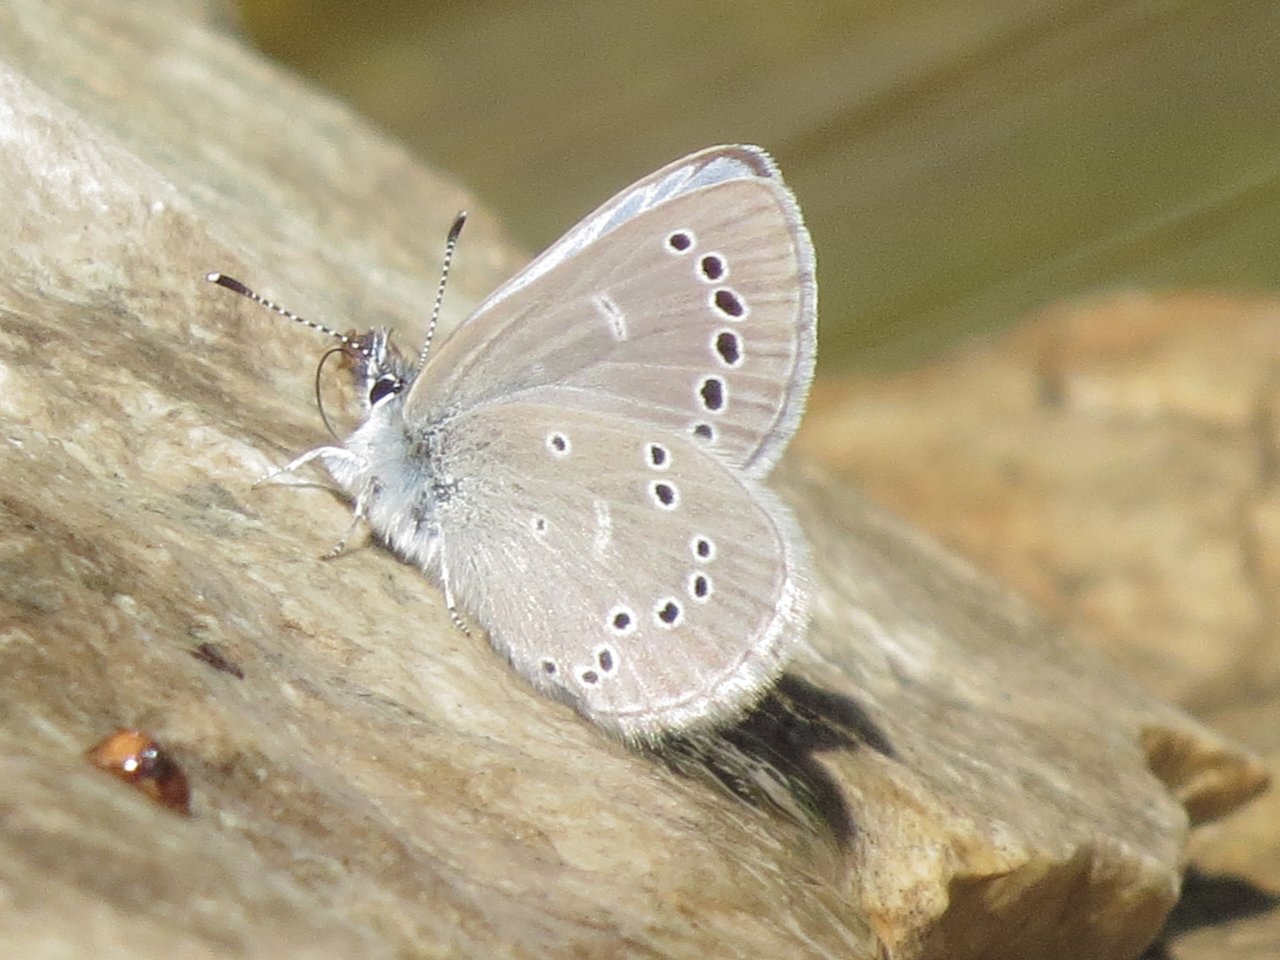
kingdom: Animalia
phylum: Arthropoda
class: Insecta
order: Lepidoptera
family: Lycaenidae
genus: Glaucopsyche
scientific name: Glaucopsyche lygdamus
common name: Silvery Blue
